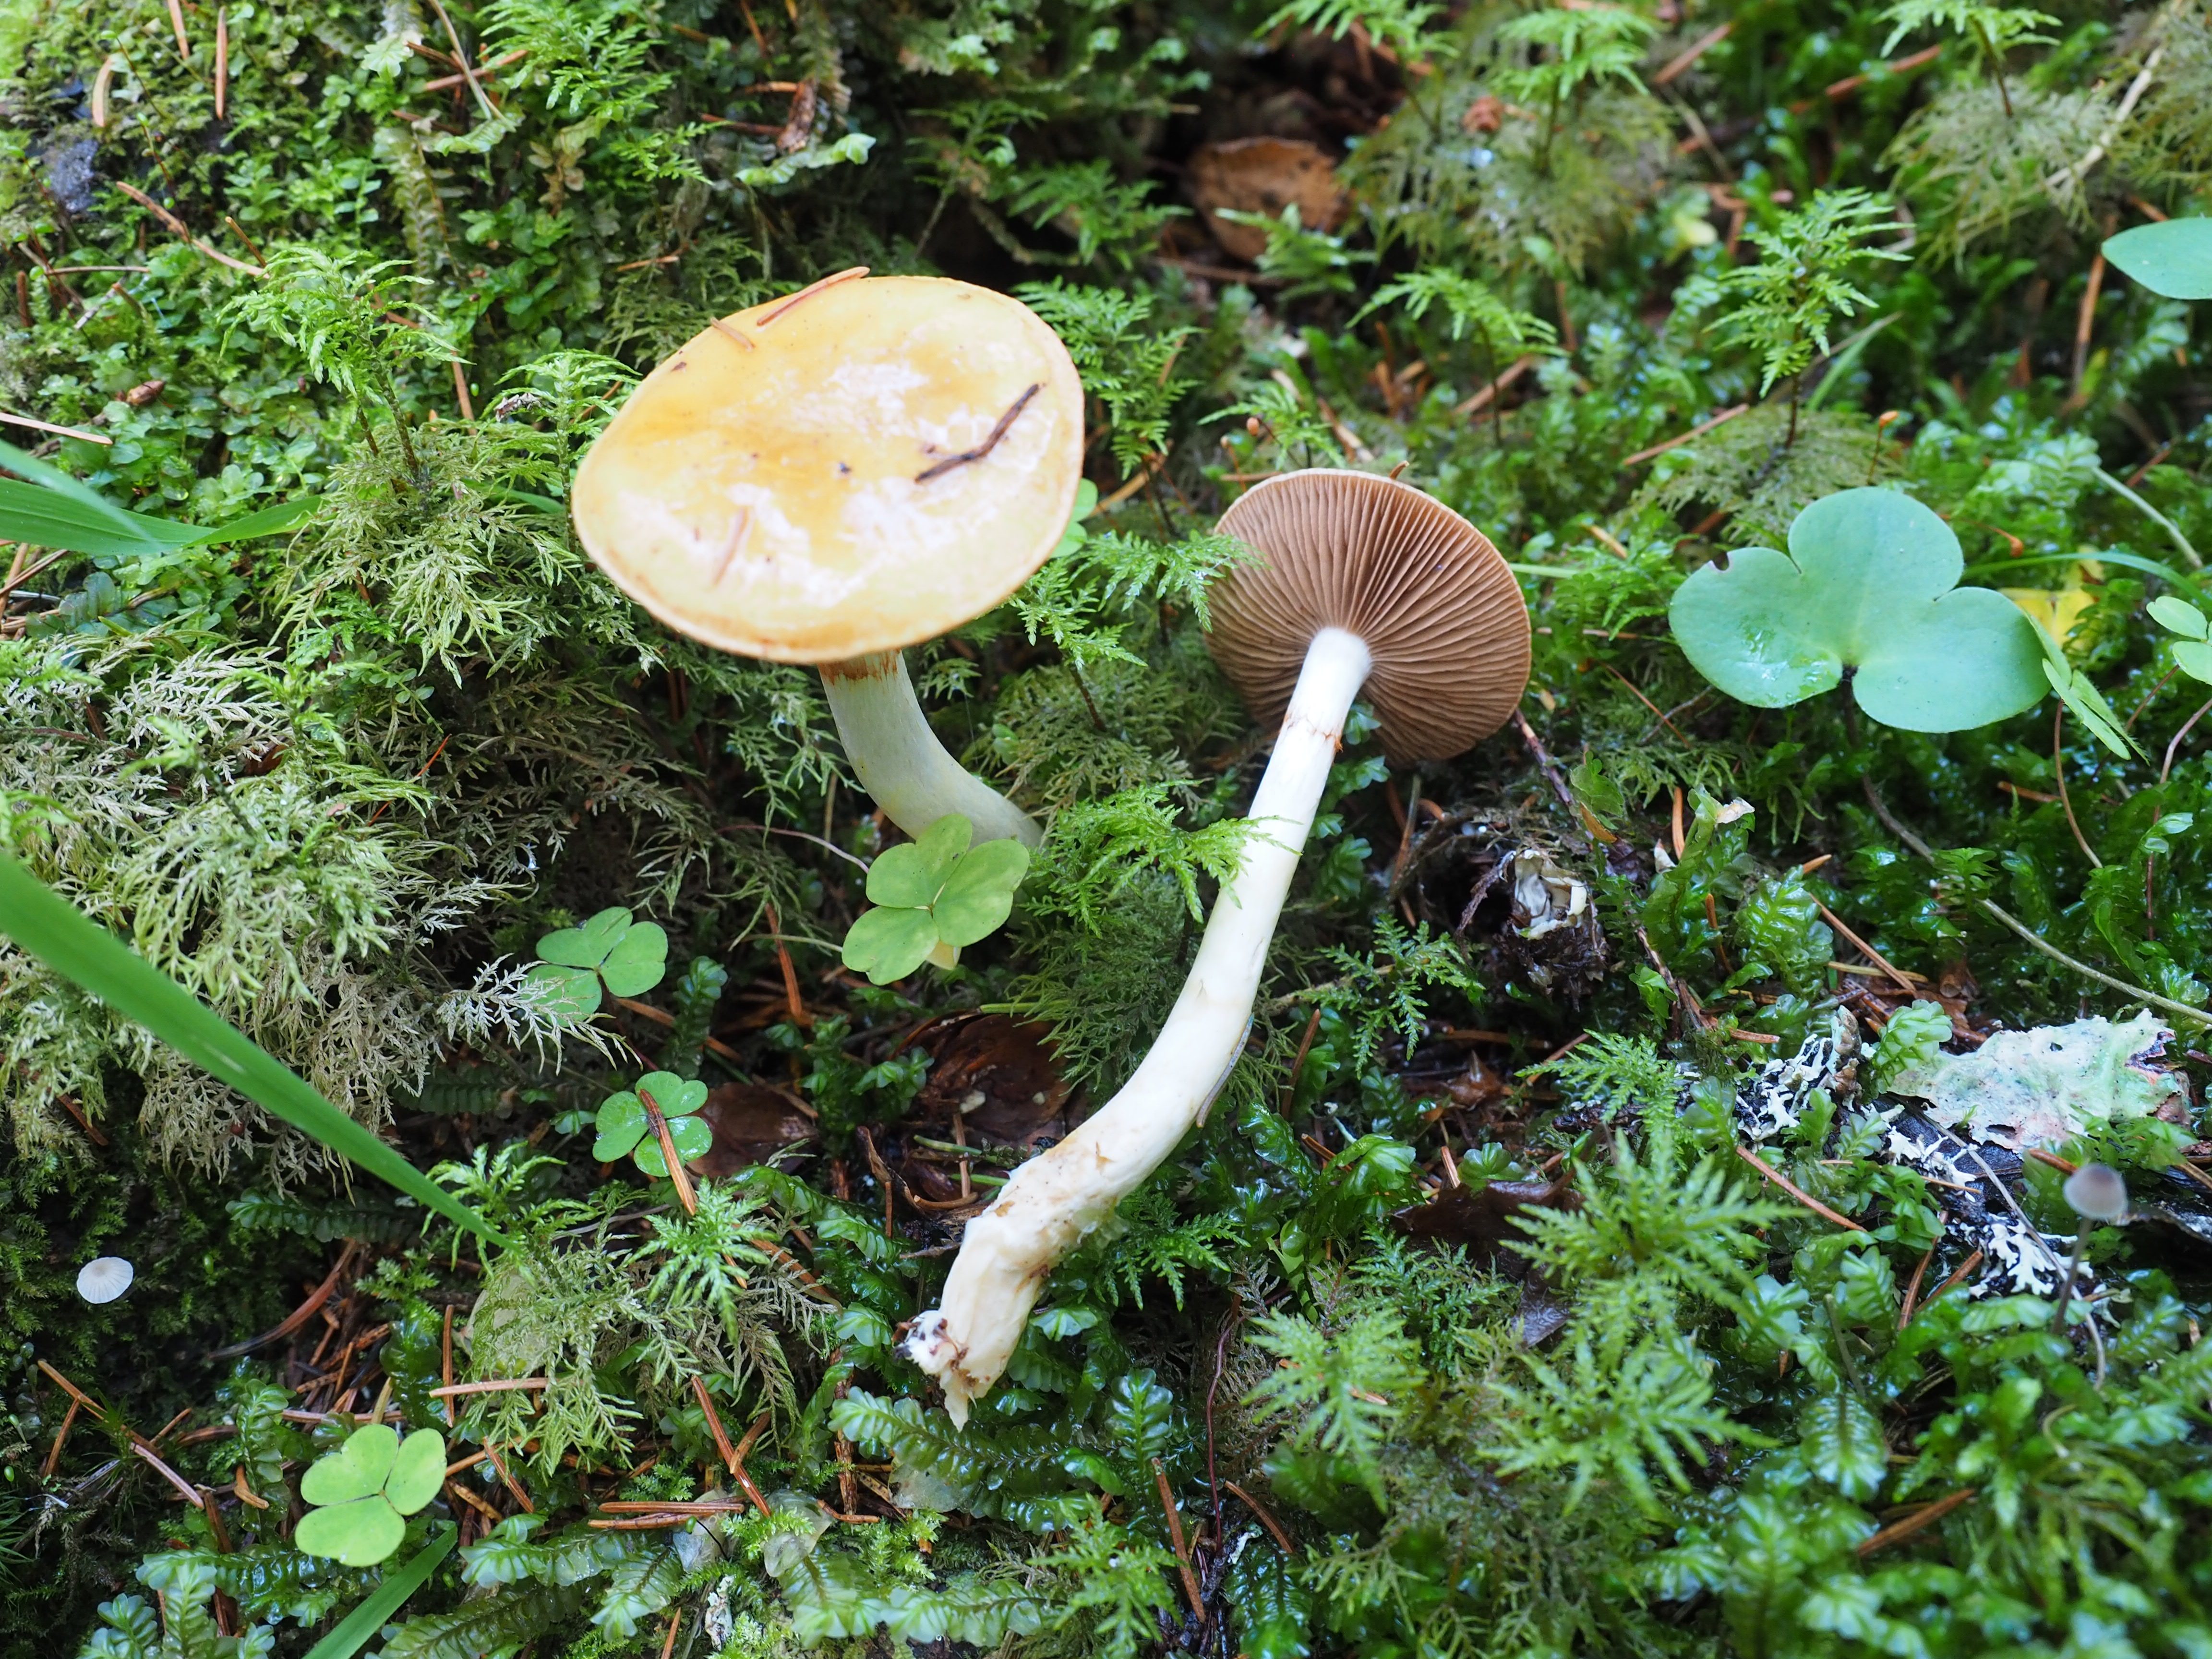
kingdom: Fungi
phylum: Basidiomycota
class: Agaricomycetes
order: Agaricales
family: Cortinariaceae
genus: Cortinarius
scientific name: Cortinarius delibutus
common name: Yellow webcap
